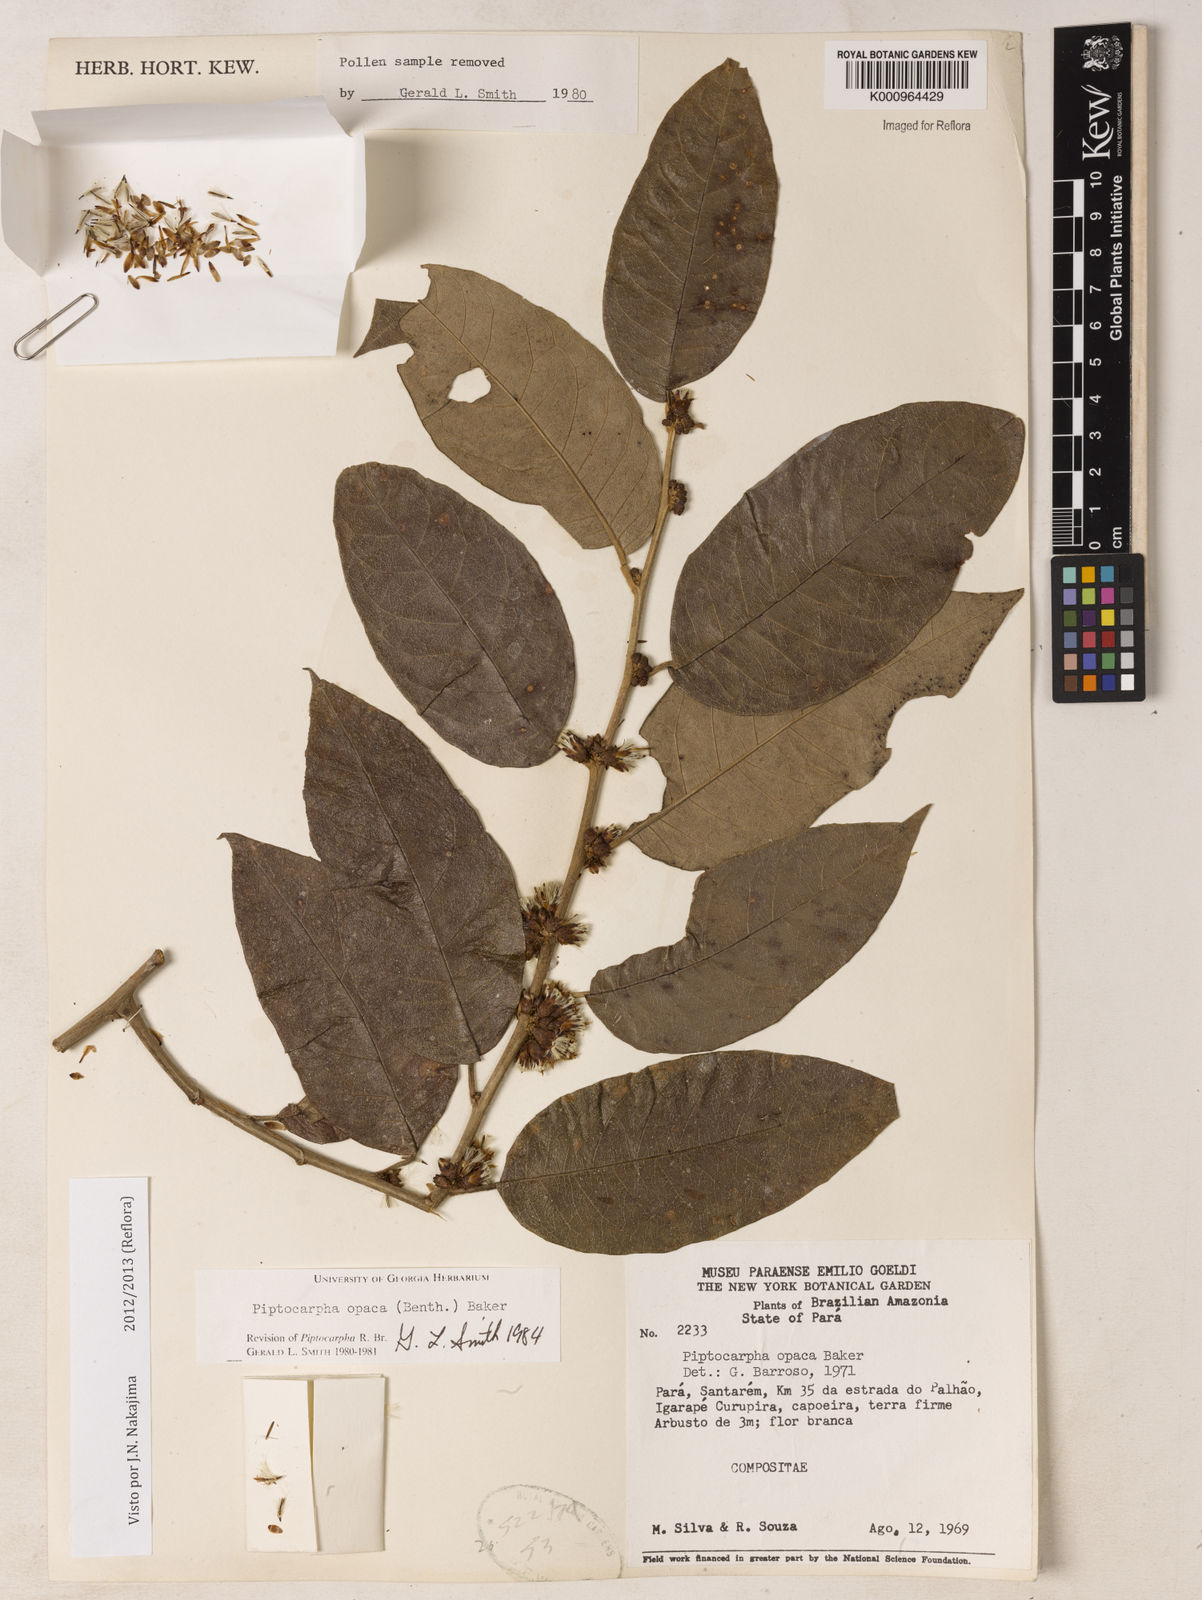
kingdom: Plantae
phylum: Tracheophyta
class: Magnoliopsida
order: Asterales
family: Asteraceae
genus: Piptocarpha
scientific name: Piptocarpha opaca
